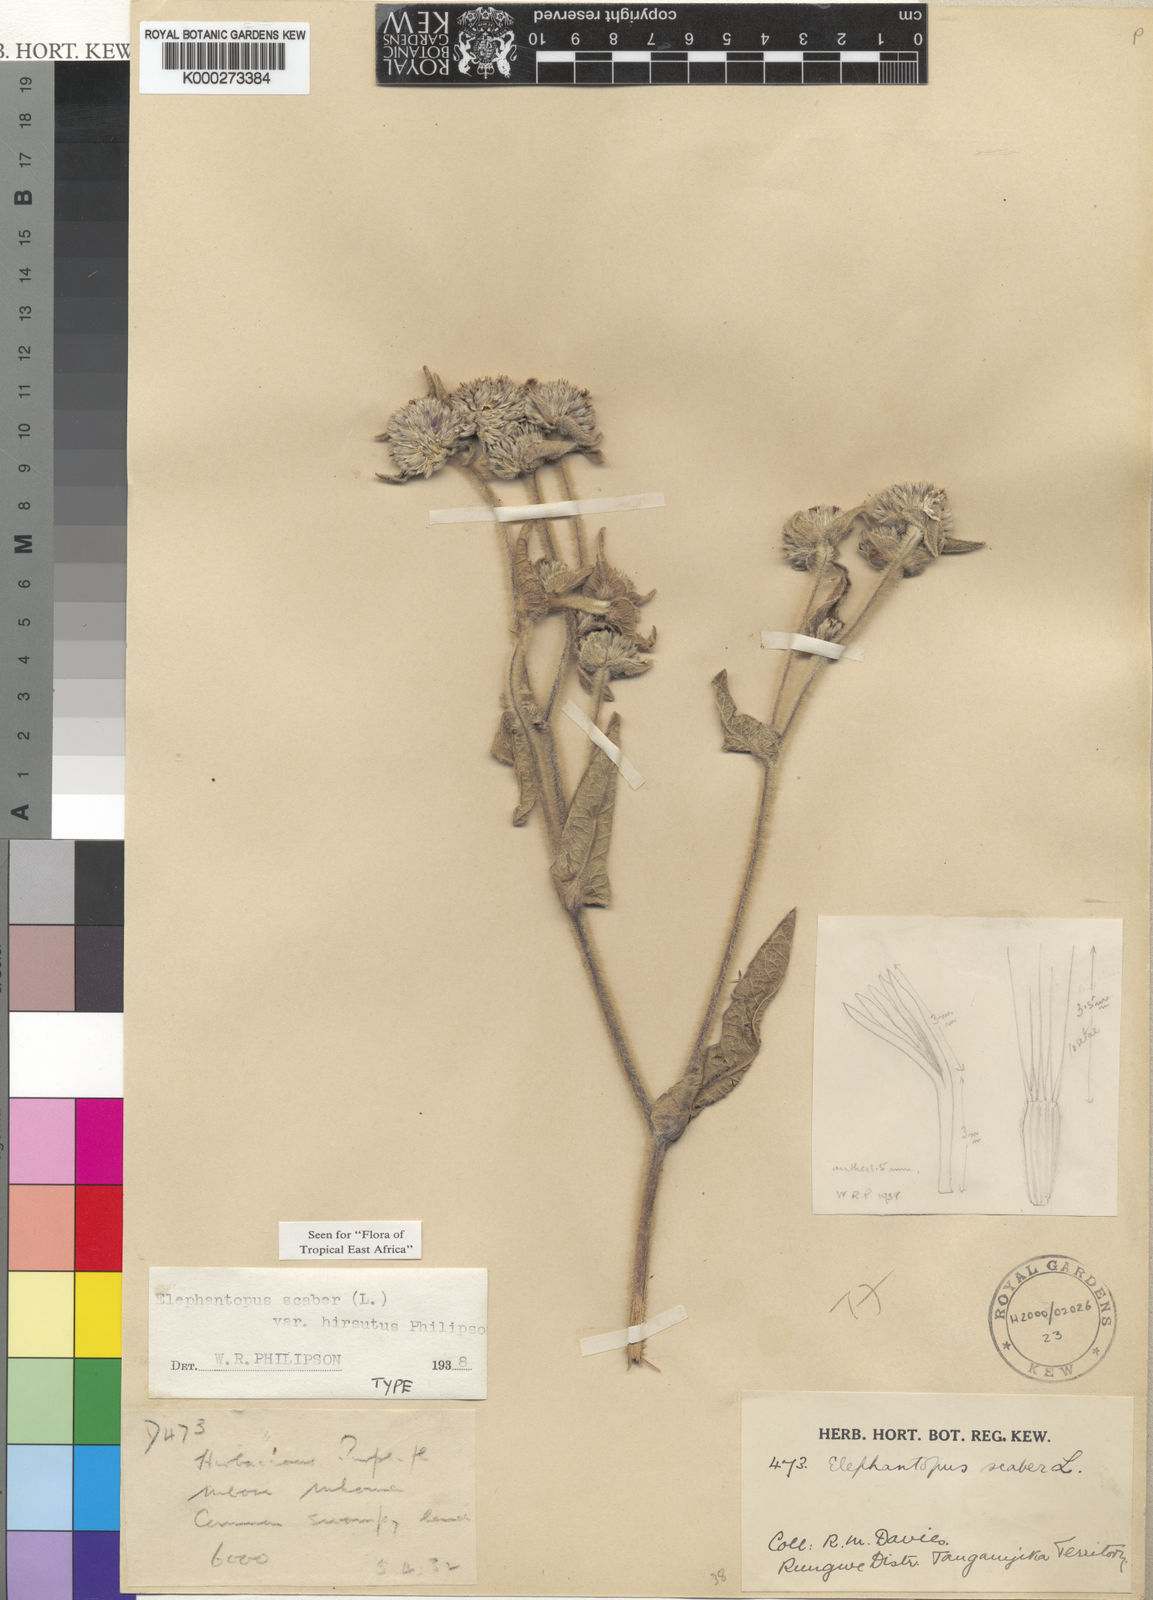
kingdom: Plantae
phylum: Tracheophyta
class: Magnoliopsida
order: Asterales
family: Asteraceae
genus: Elephantopus
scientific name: Elephantopus scaber
